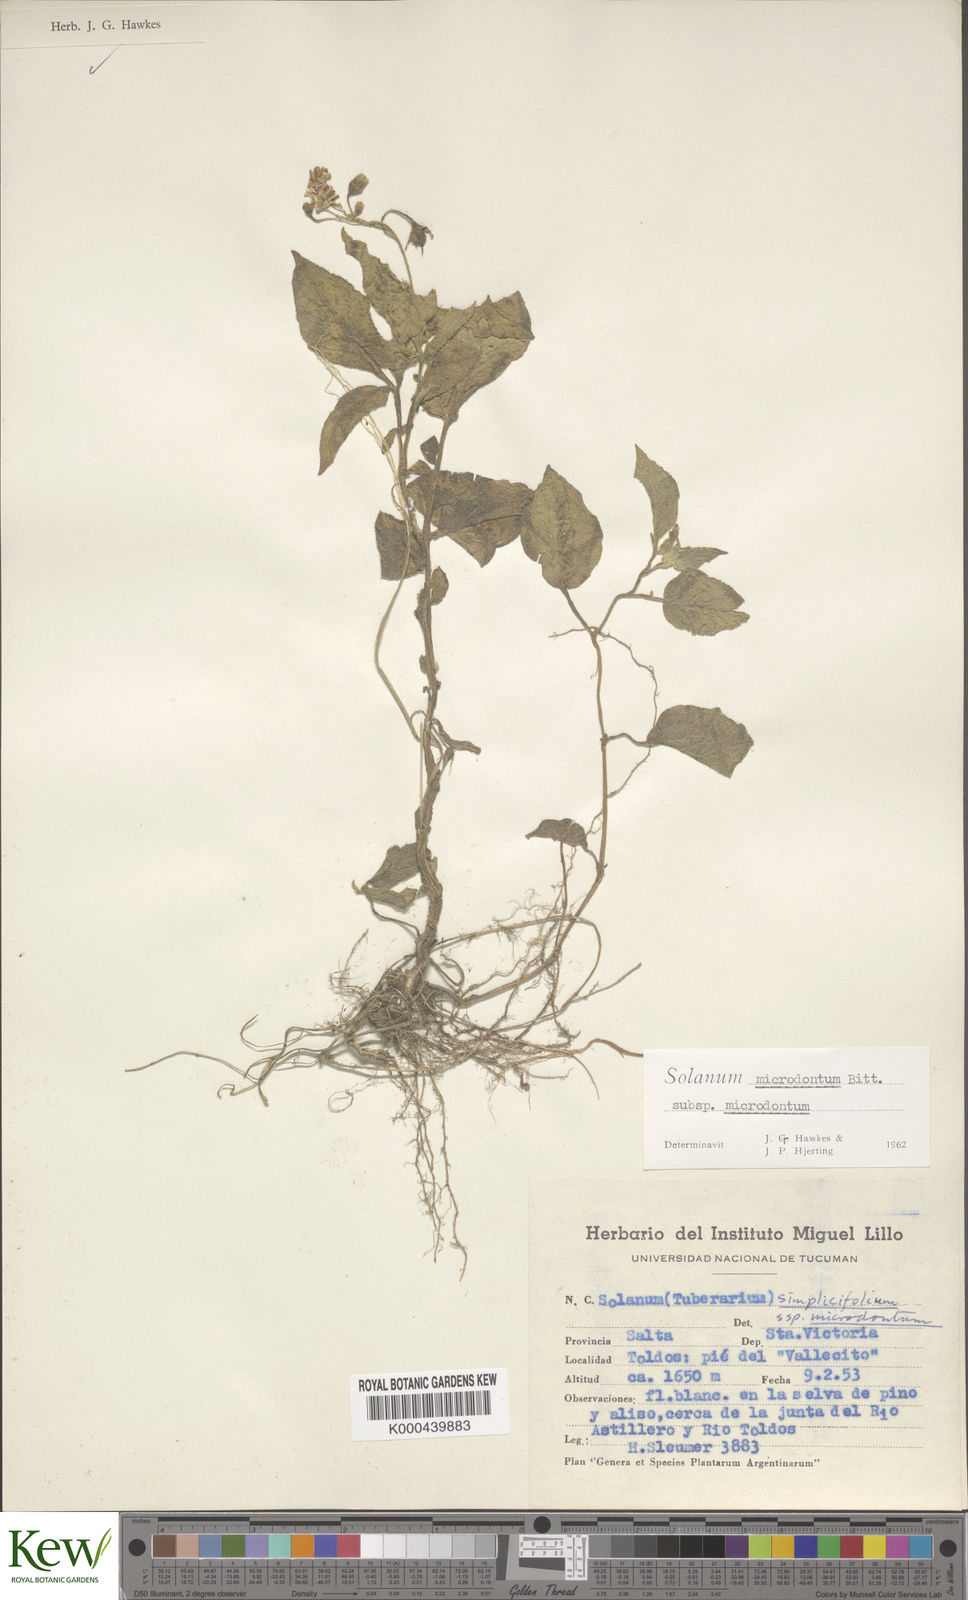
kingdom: Plantae
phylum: Tracheophyta
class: Magnoliopsida
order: Solanales
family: Solanaceae
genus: Solanum
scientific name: Solanum microdontum
